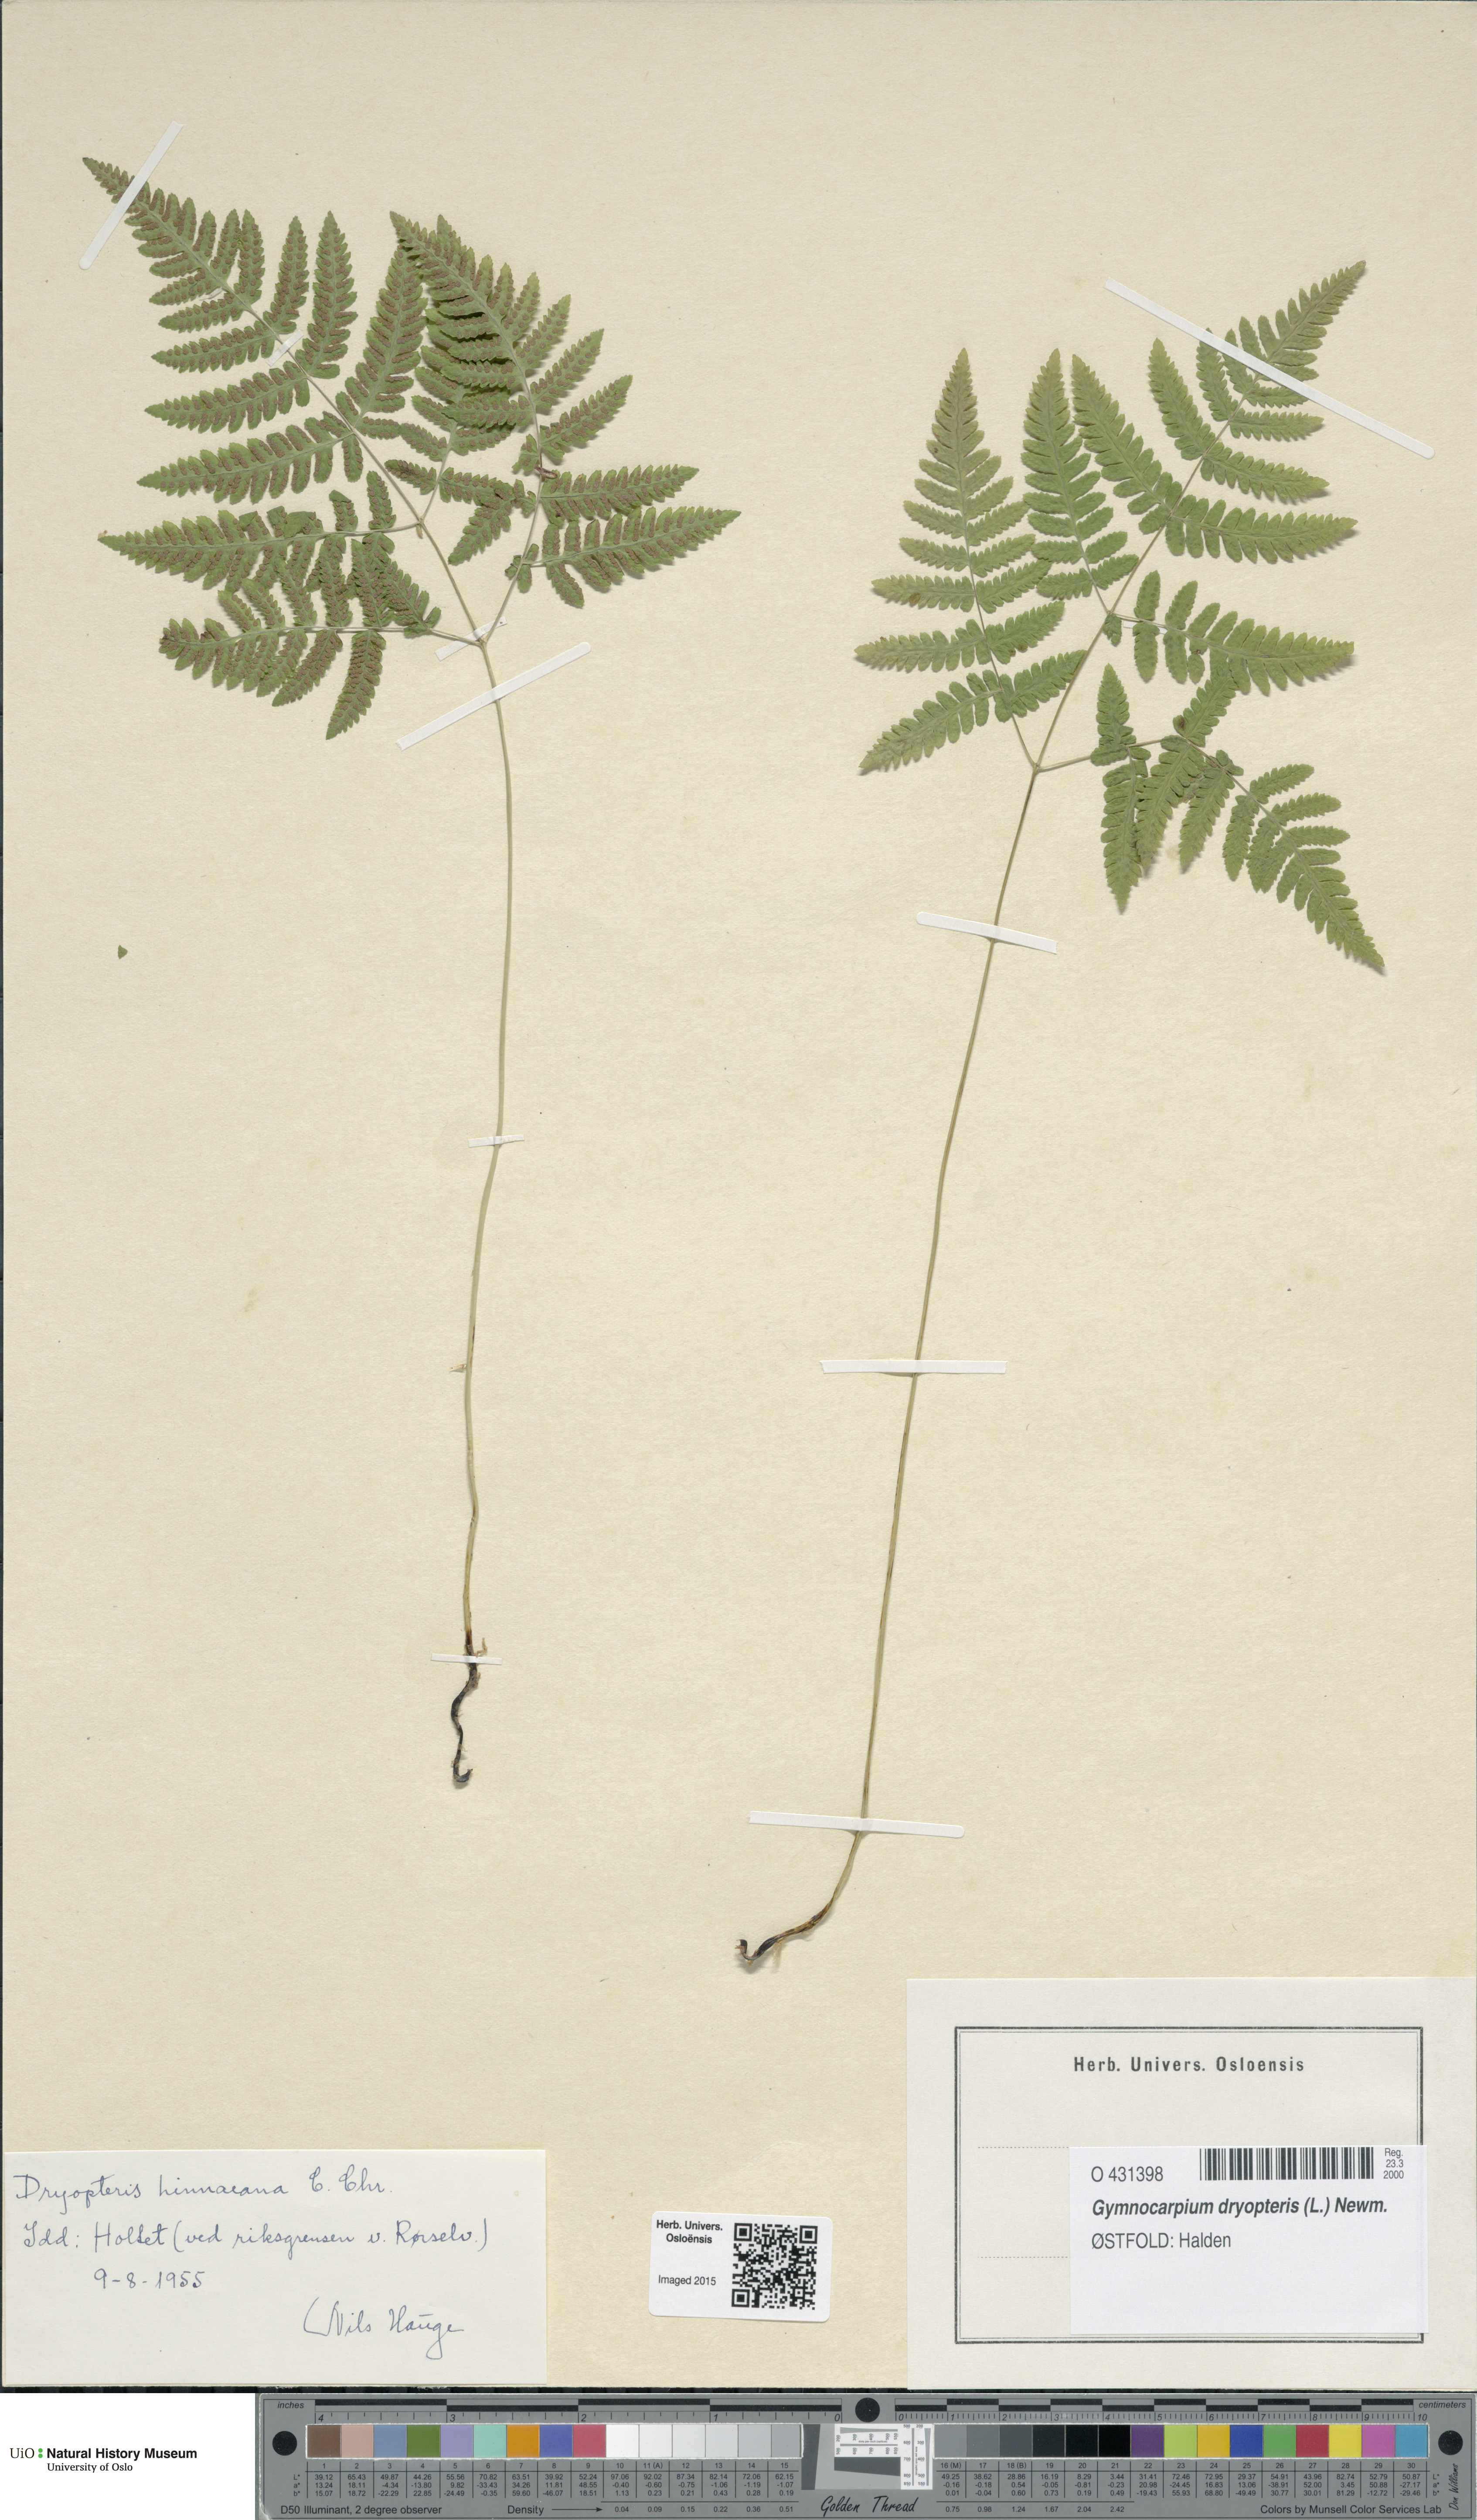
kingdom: Plantae
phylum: Tracheophyta
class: Polypodiopsida
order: Polypodiales
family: Cystopteridaceae
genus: Gymnocarpium
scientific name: Gymnocarpium dryopteris
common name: Oak fern
